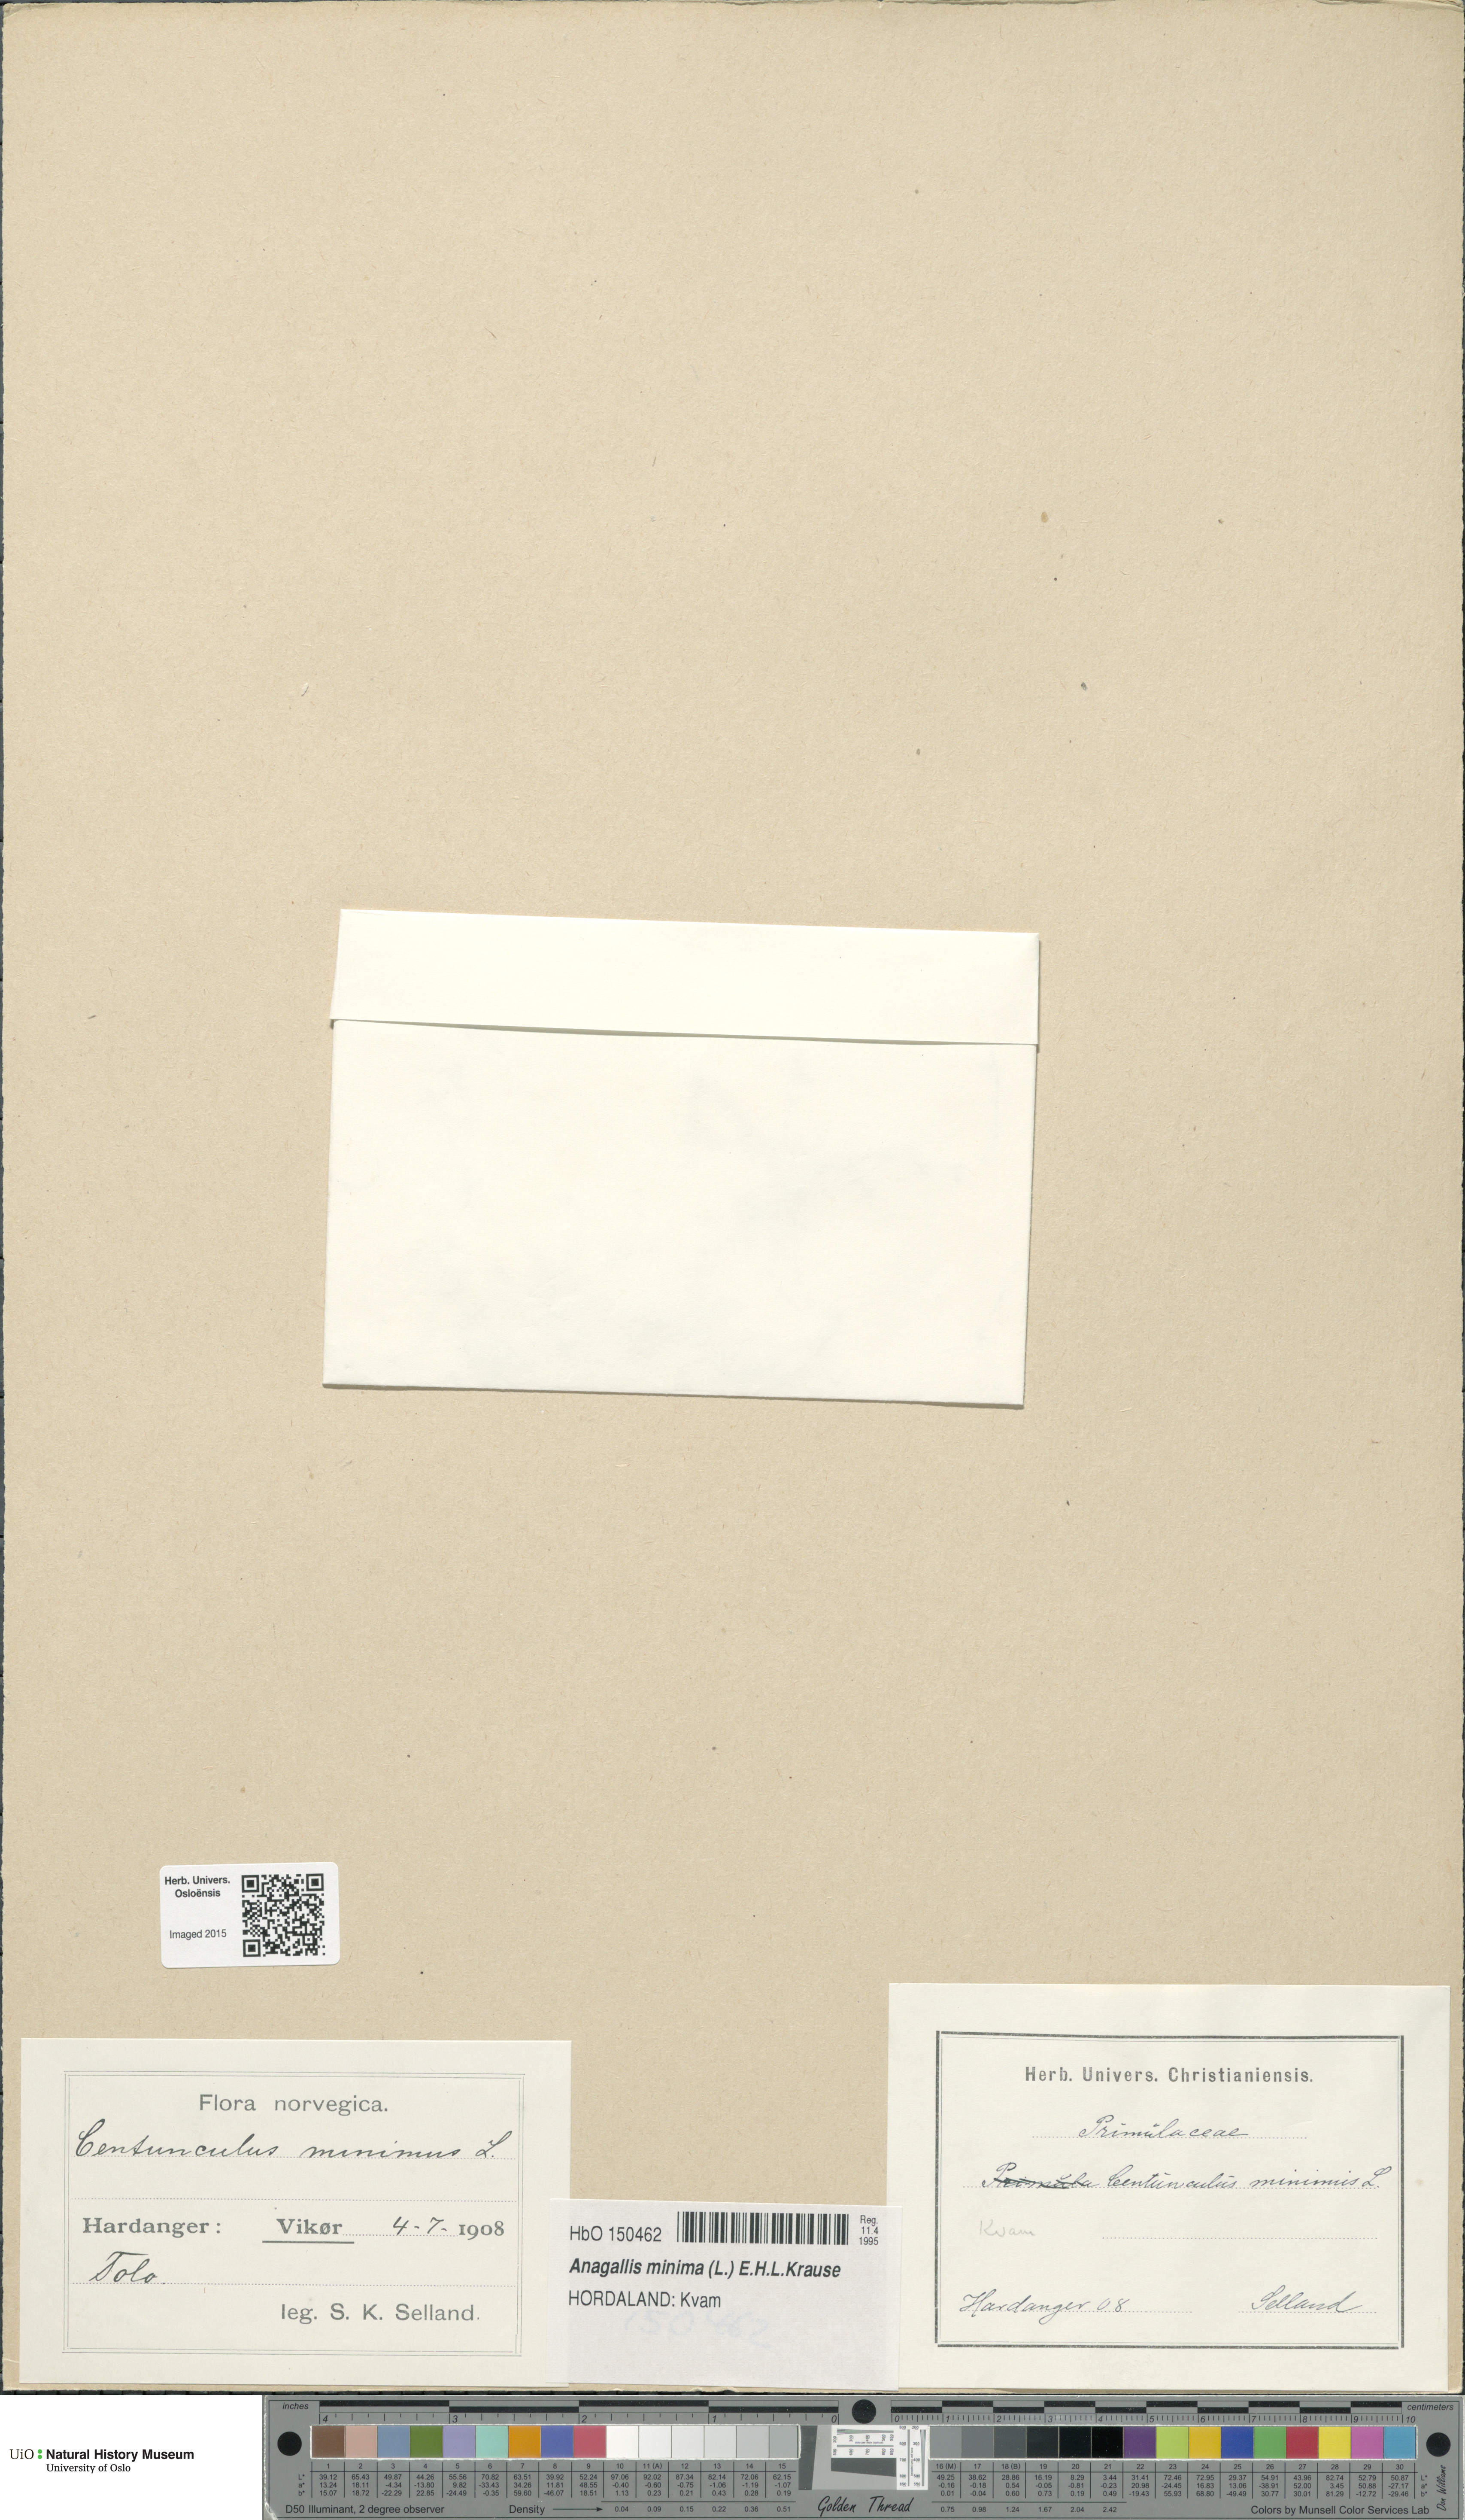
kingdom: Plantae
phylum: Tracheophyta
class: Magnoliopsida
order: Ericales
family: Primulaceae
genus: Lysimachia
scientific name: Lysimachia minima
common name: Chaffweed
